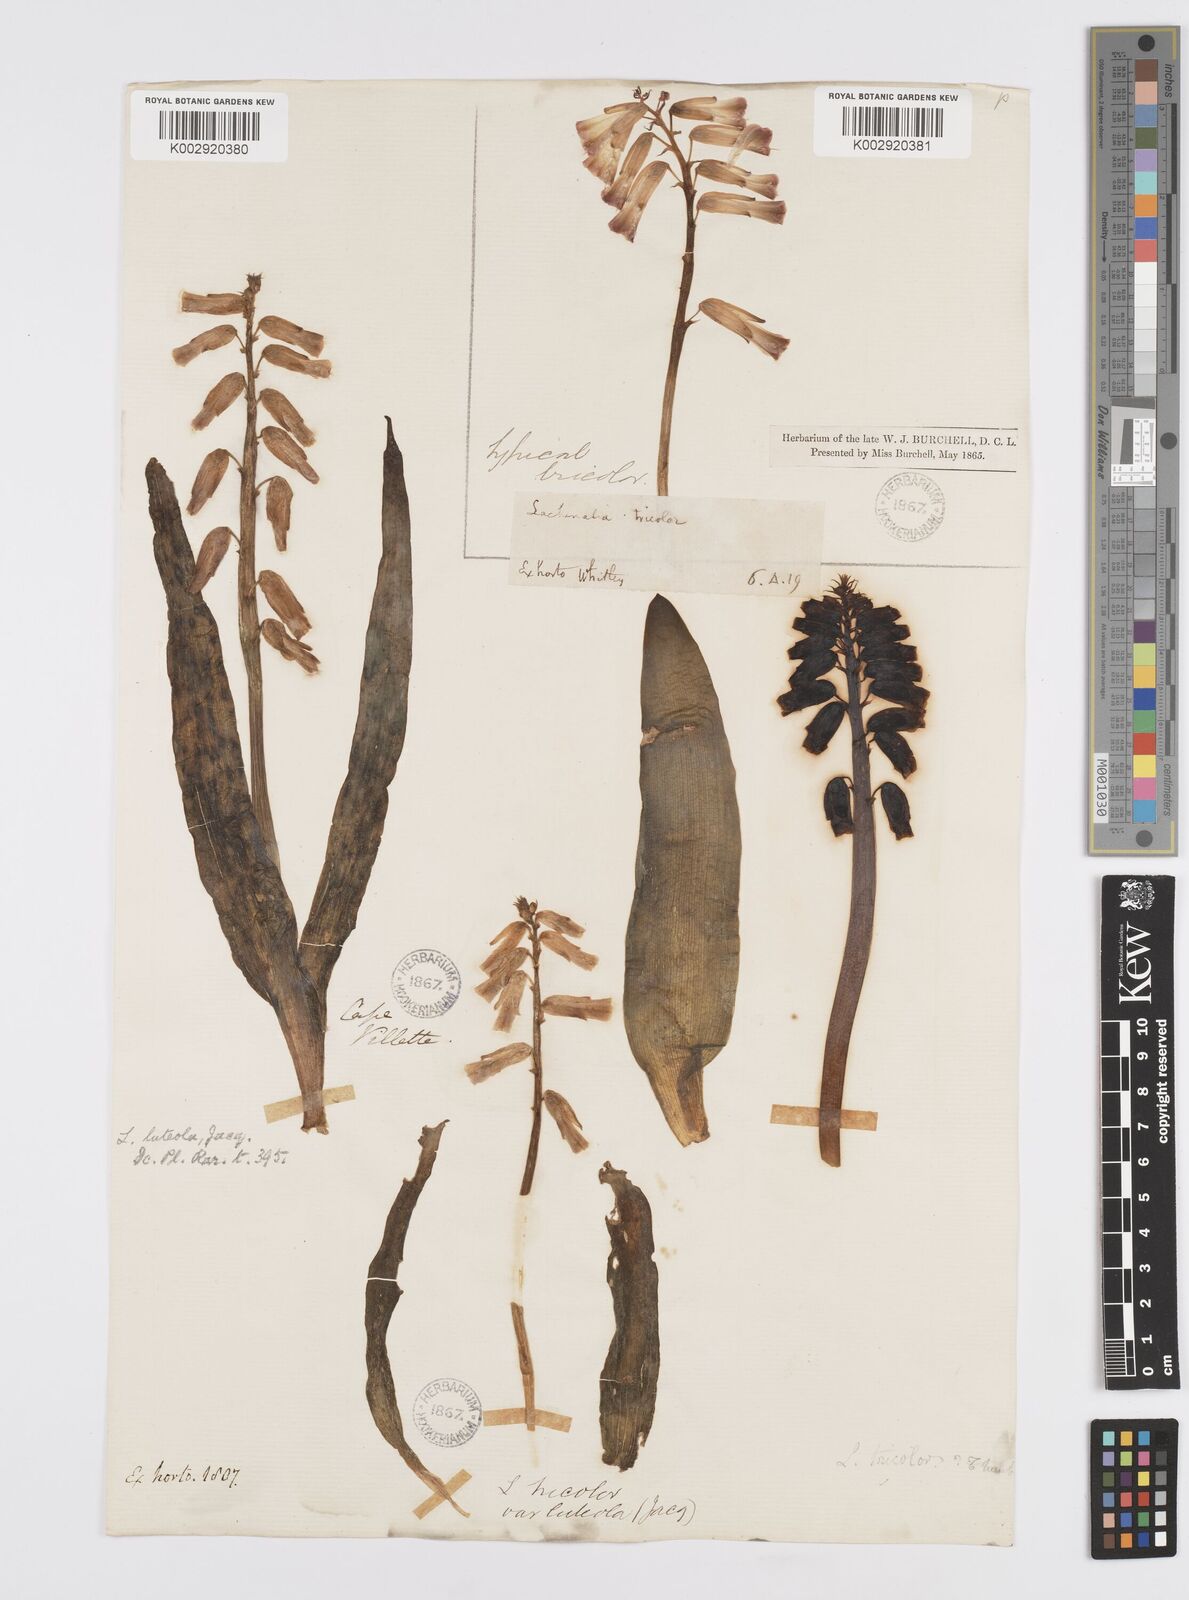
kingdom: Plantae
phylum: Tracheophyta
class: Liliopsida
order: Asparagales
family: Asparagaceae
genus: Lachenalia
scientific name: Lachenalia
